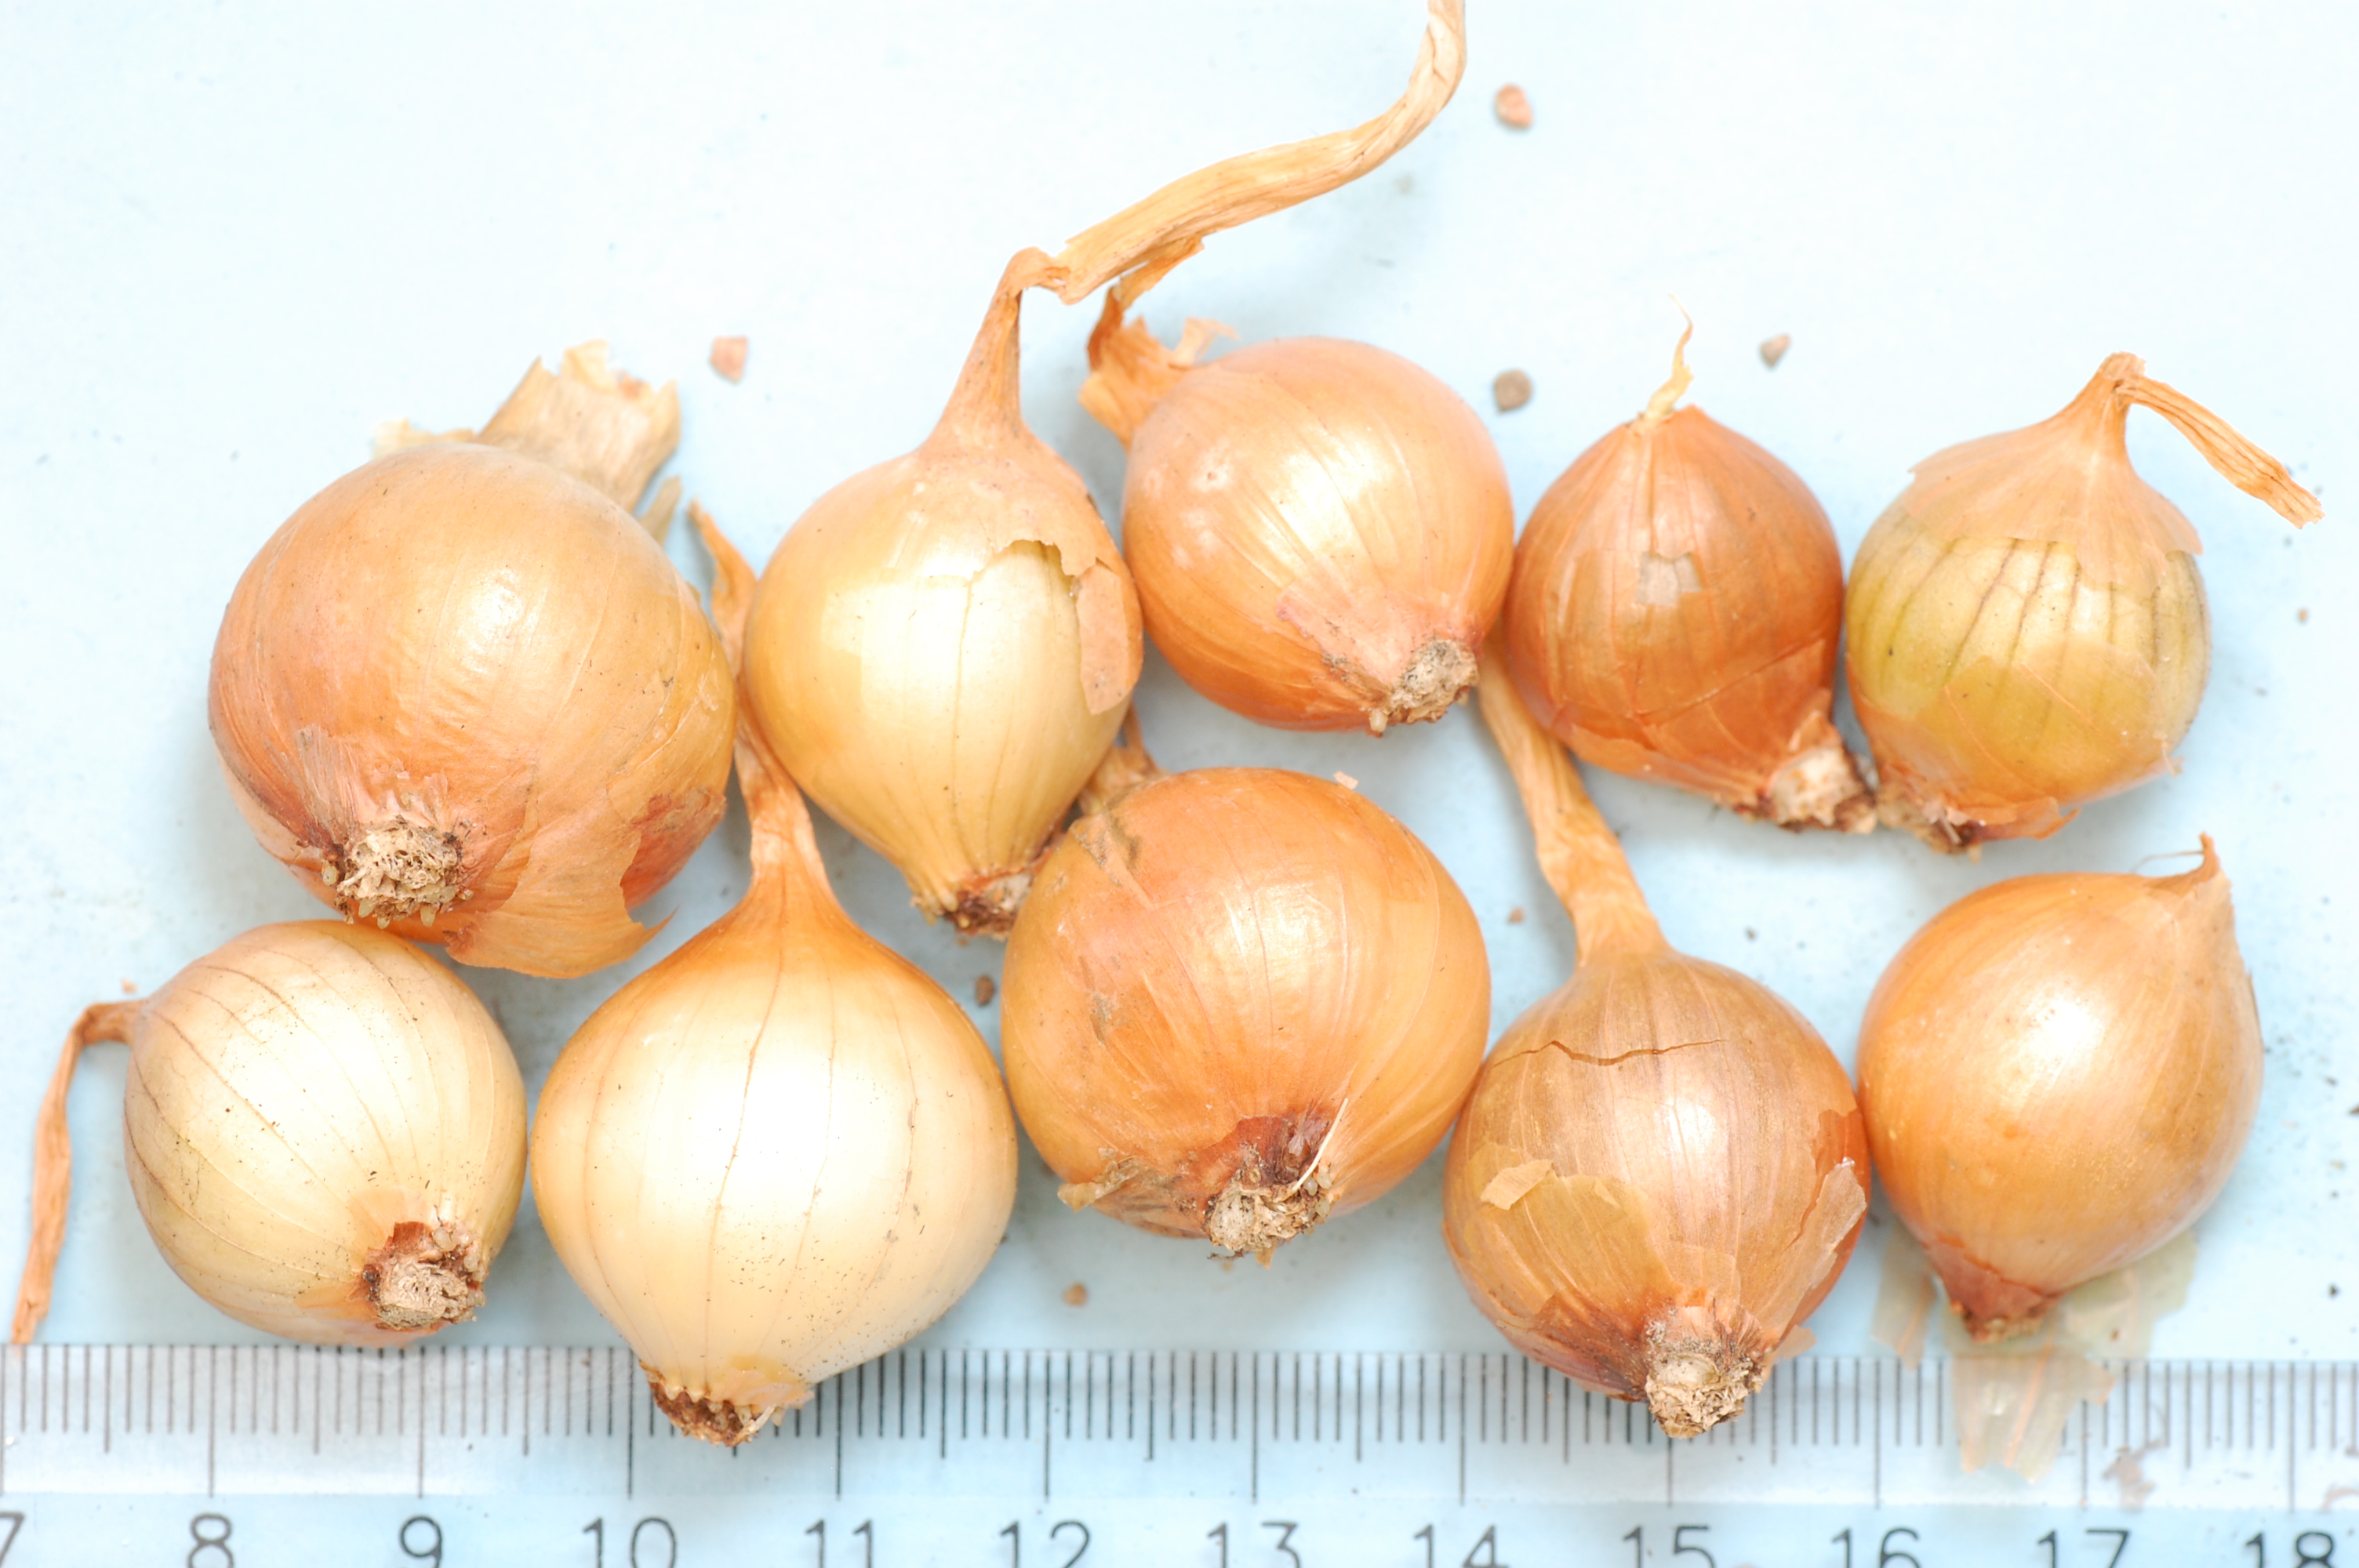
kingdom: Plantae
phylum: Tracheophyta
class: Liliopsida
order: Asparagales
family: Amaryllidaceae
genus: Allium
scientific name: Allium cepa
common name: Onion
